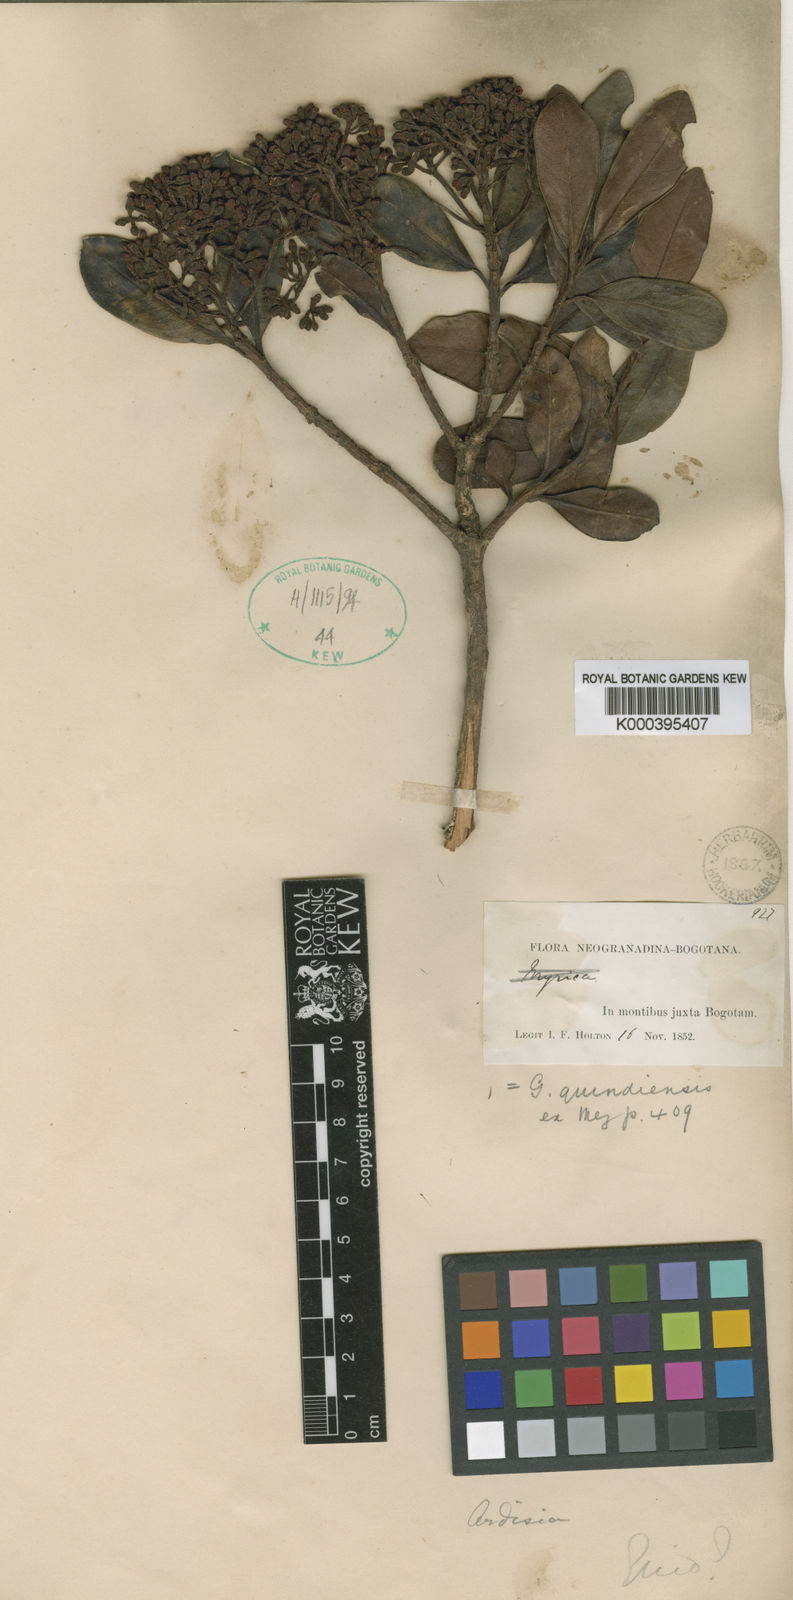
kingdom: Plantae
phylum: Tracheophyta
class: Magnoliopsida
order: Ericales
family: Primulaceae
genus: Geissanthus
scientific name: Geissanthus quindiensis
